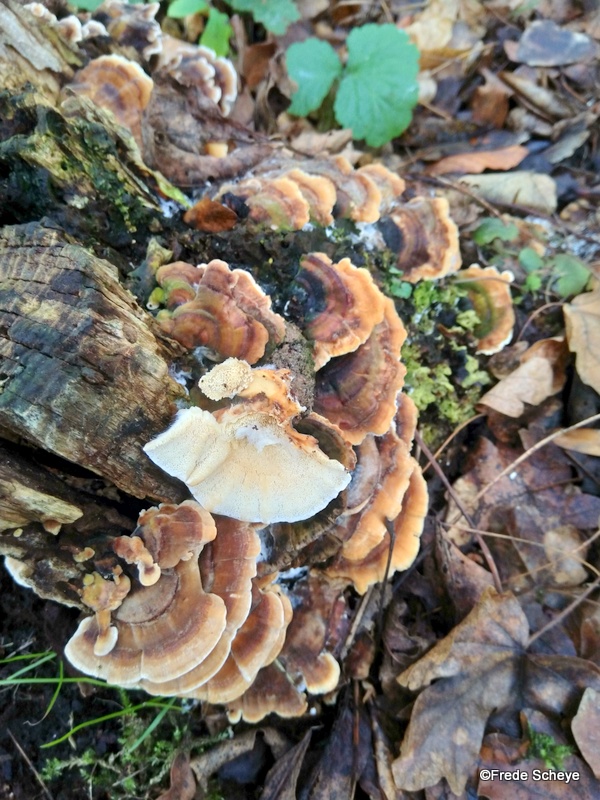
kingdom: Fungi
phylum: Basidiomycota
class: Agaricomycetes
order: Polyporales
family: Polyporaceae
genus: Trametes
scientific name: Trametes ochracea
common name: bæltet læderporesvamp
